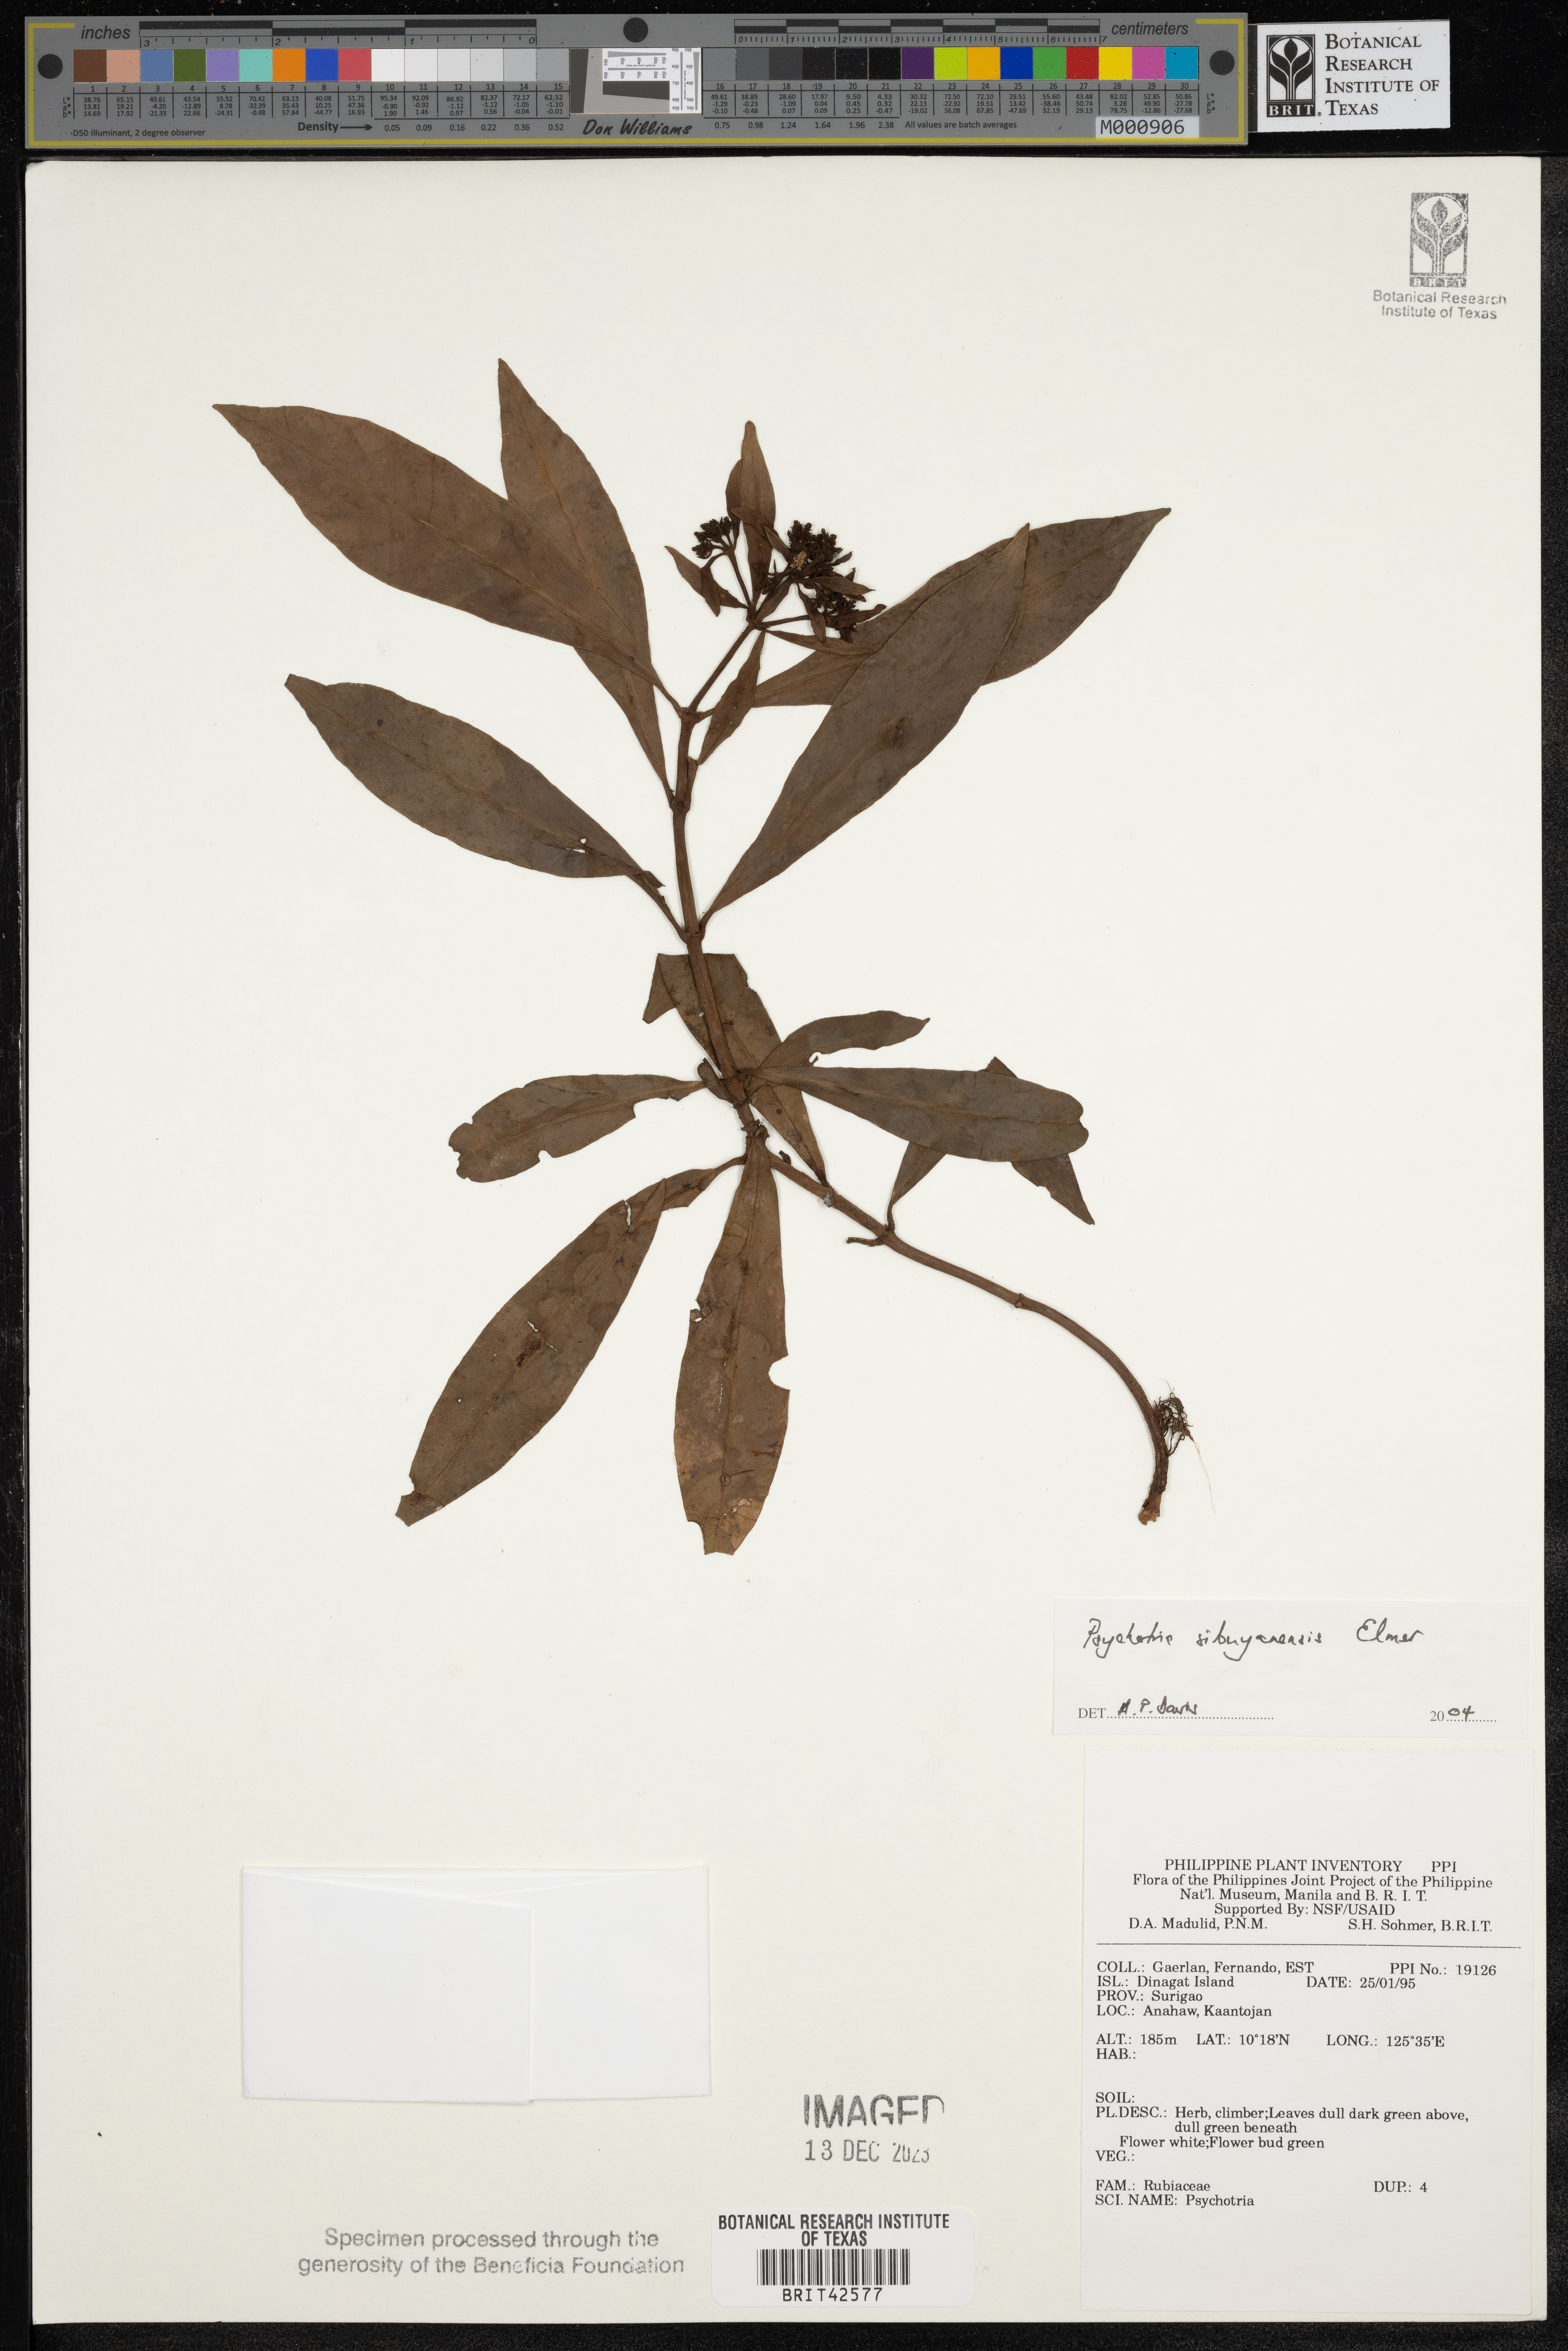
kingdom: Plantae
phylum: Tracheophyta
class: Magnoliopsida
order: Gentianales
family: Rubiaceae
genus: Psychotria
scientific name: Psychotria sibuyanensis
